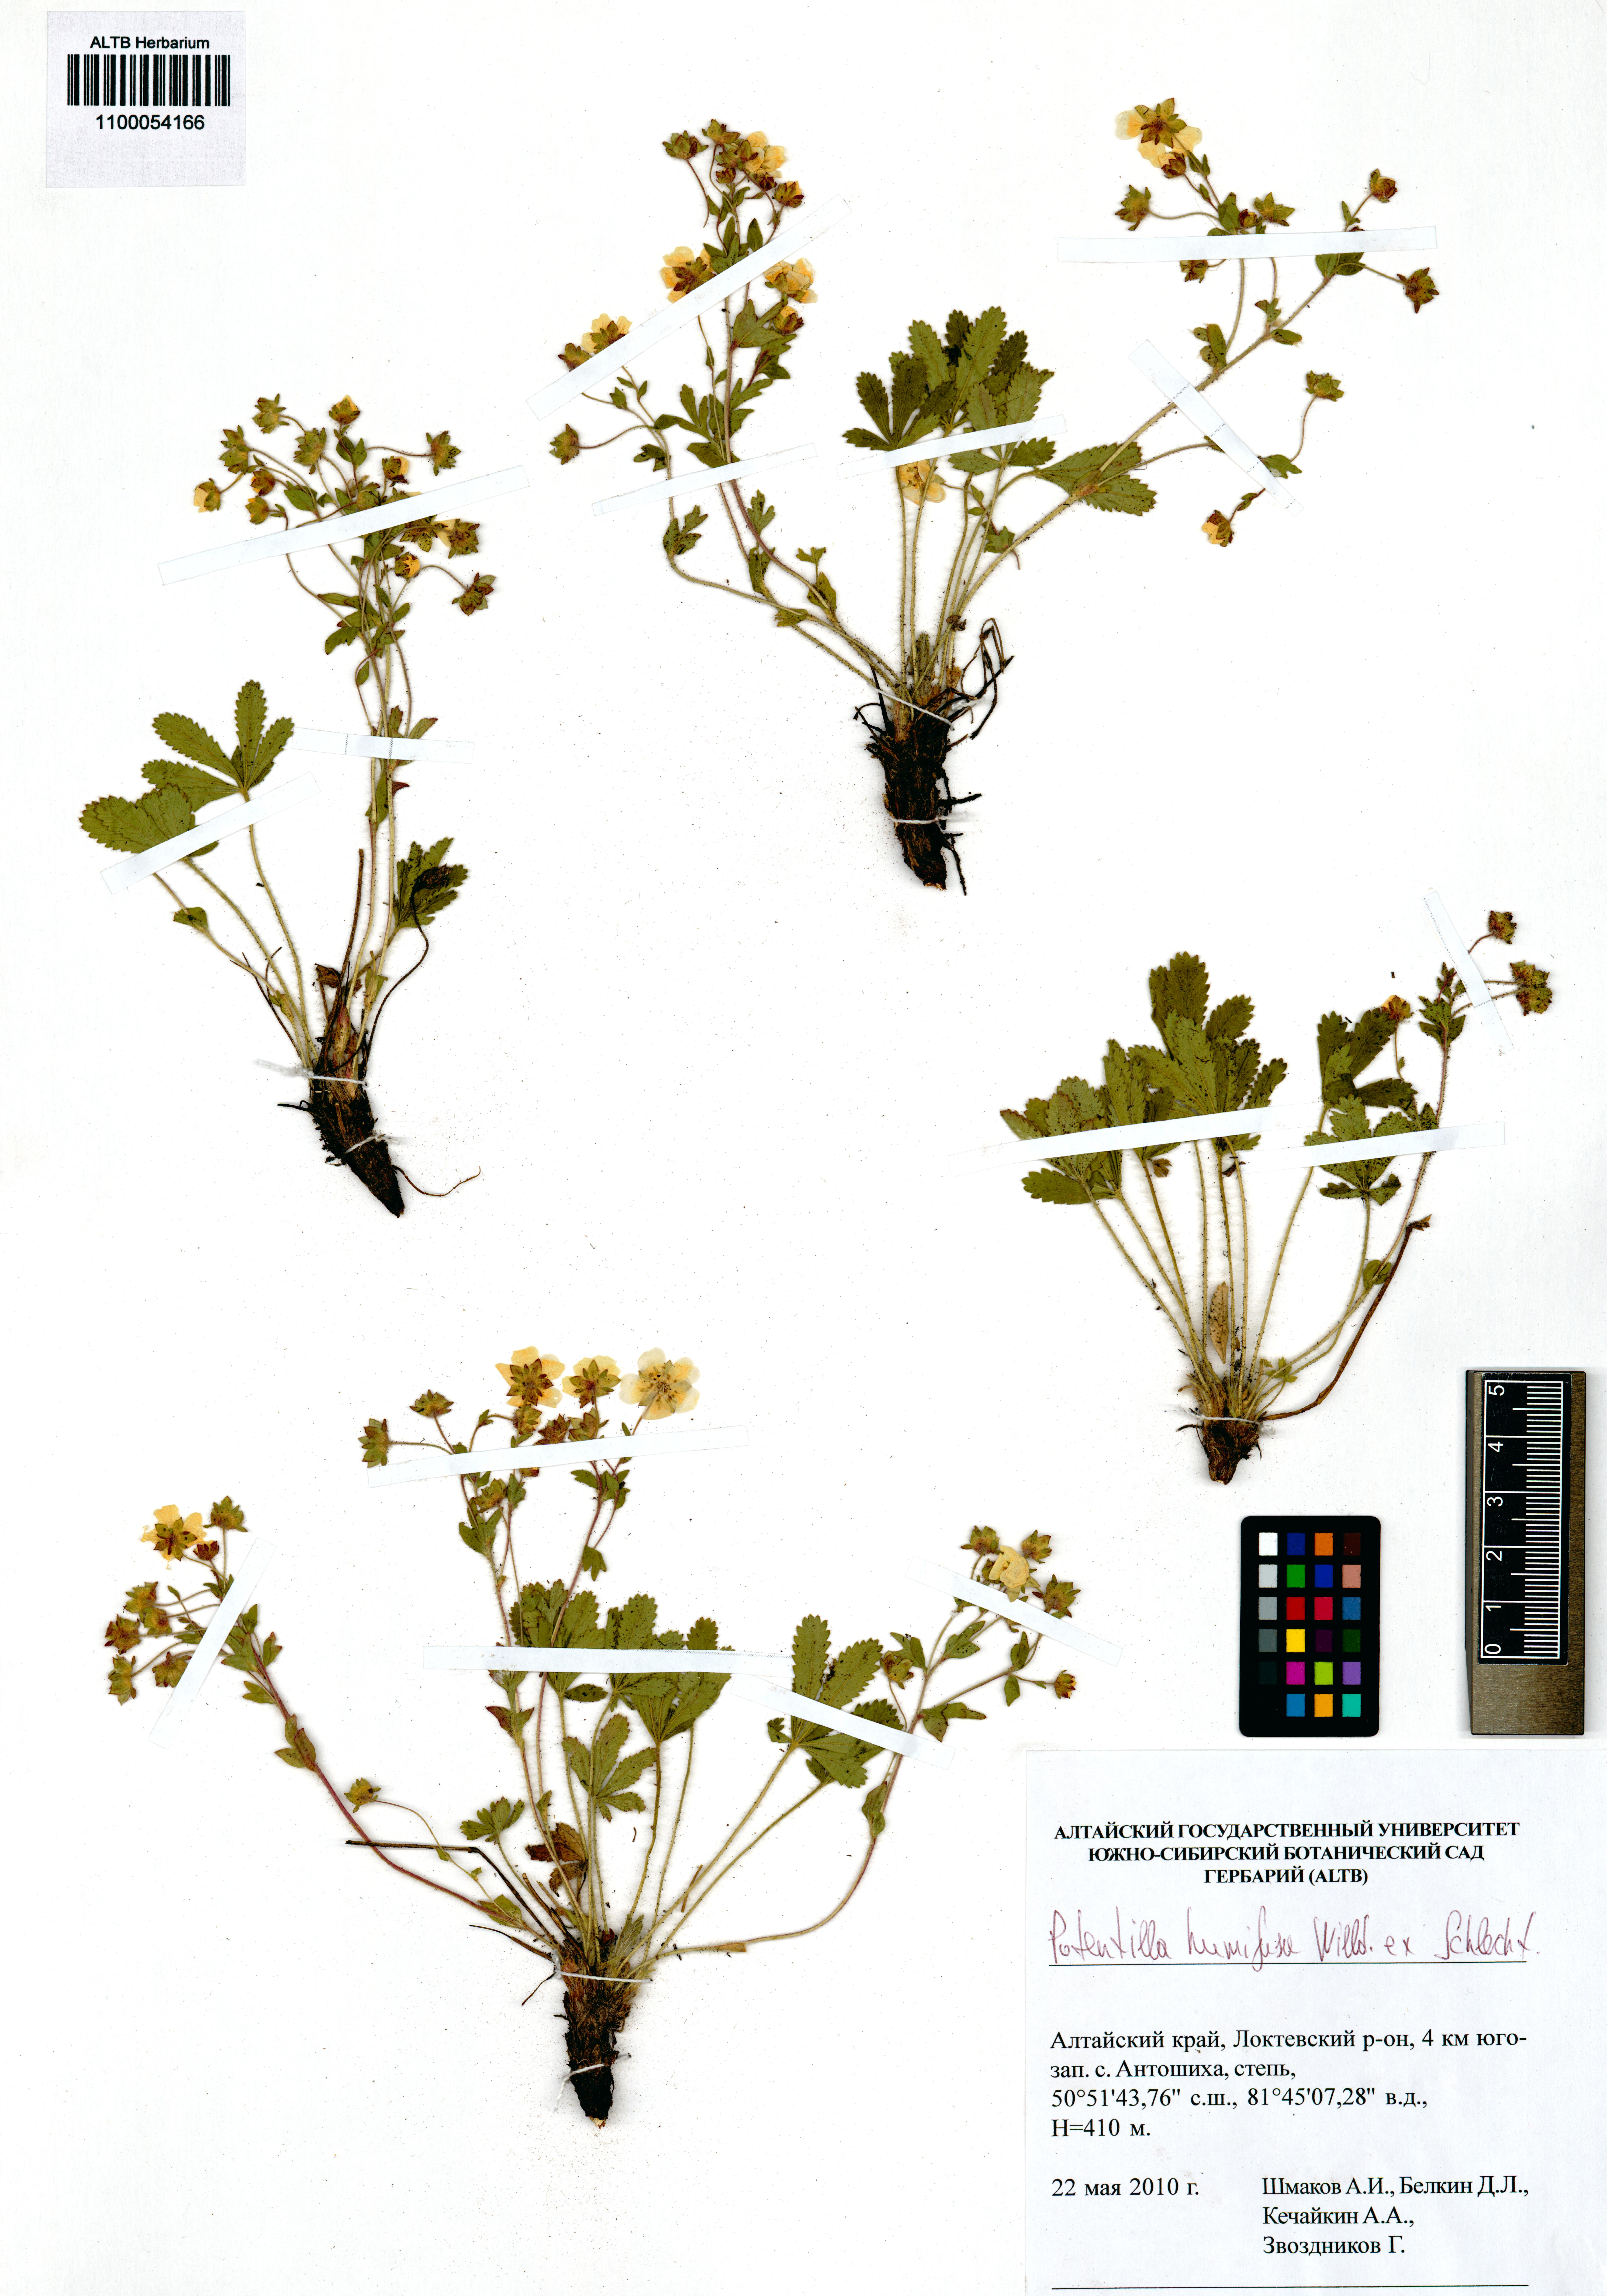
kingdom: Plantae
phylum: Tracheophyta
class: Magnoliopsida
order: Rosales
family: Rosaceae
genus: Potentilla
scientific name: Potentilla humifusa
